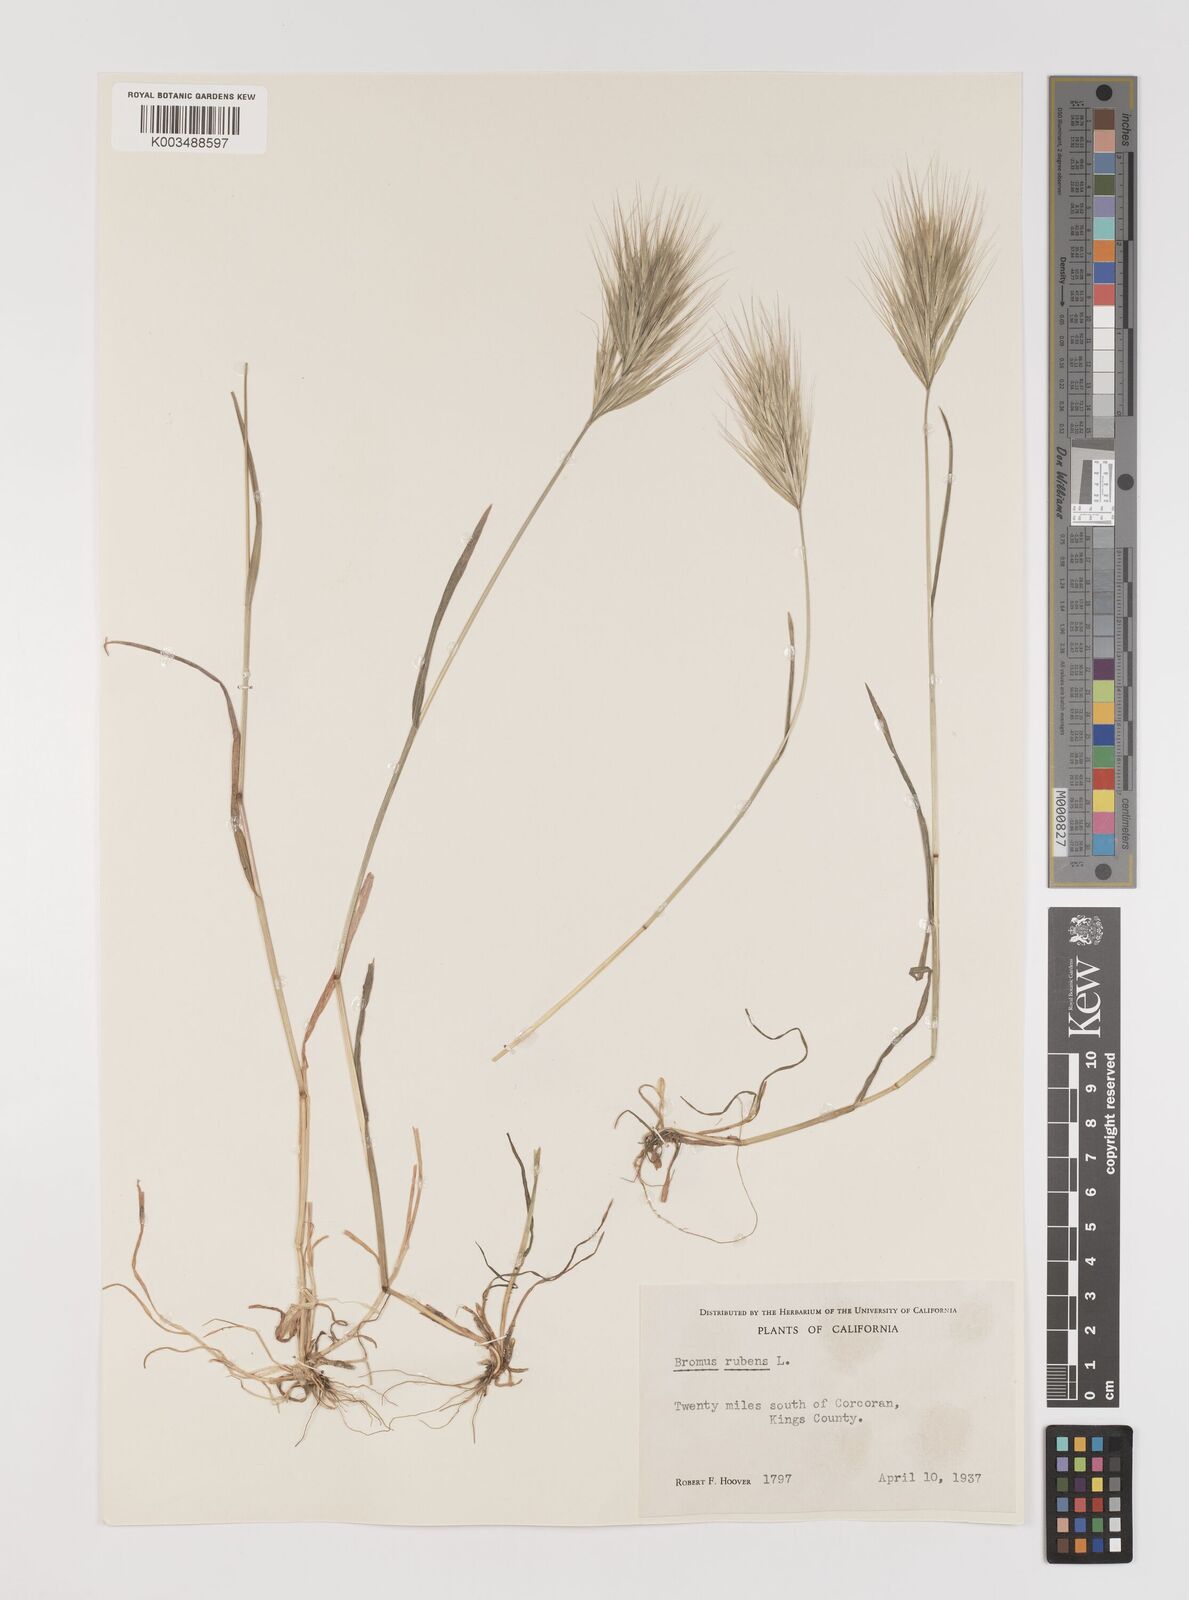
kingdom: Plantae
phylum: Tracheophyta
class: Liliopsida
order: Poales
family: Poaceae
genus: Bromus
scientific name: Bromus rubens
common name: Red brome
